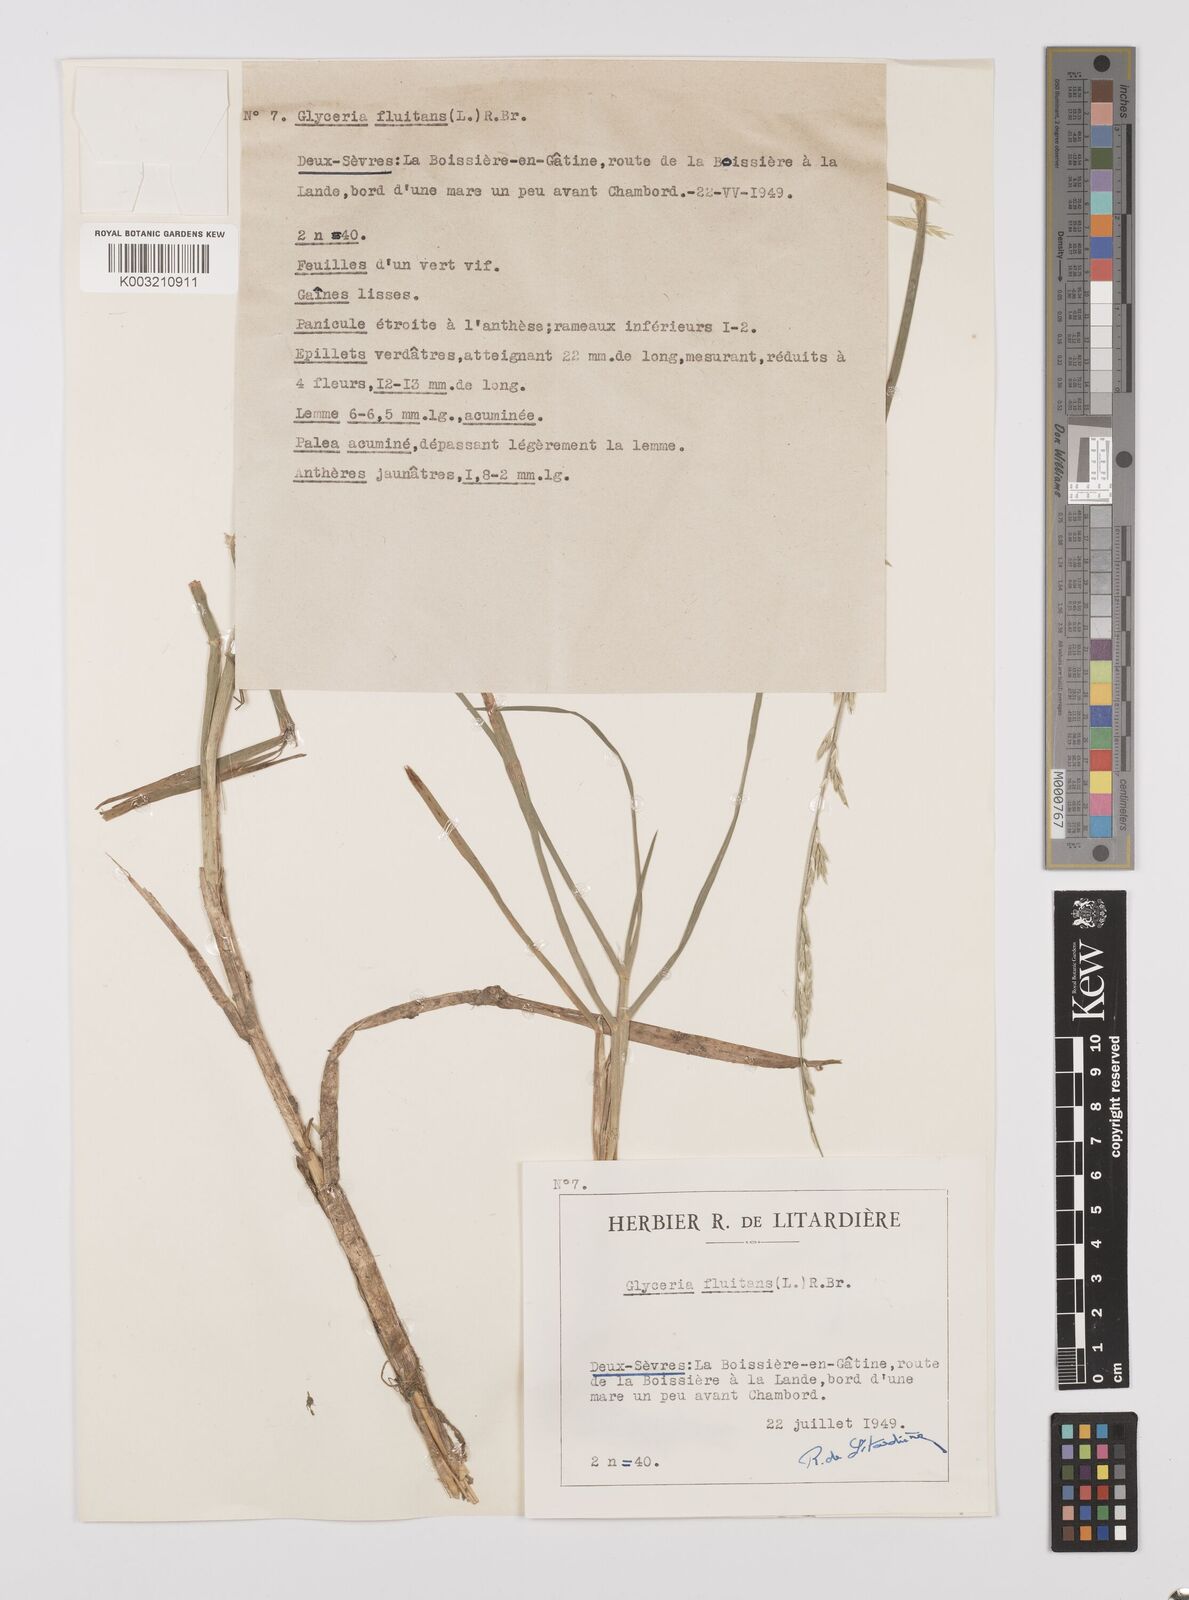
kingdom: Plantae
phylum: Tracheophyta
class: Liliopsida
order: Poales
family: Poaceae
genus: Glyceria
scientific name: Glyceria fluitans
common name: Floating sweet-grass
